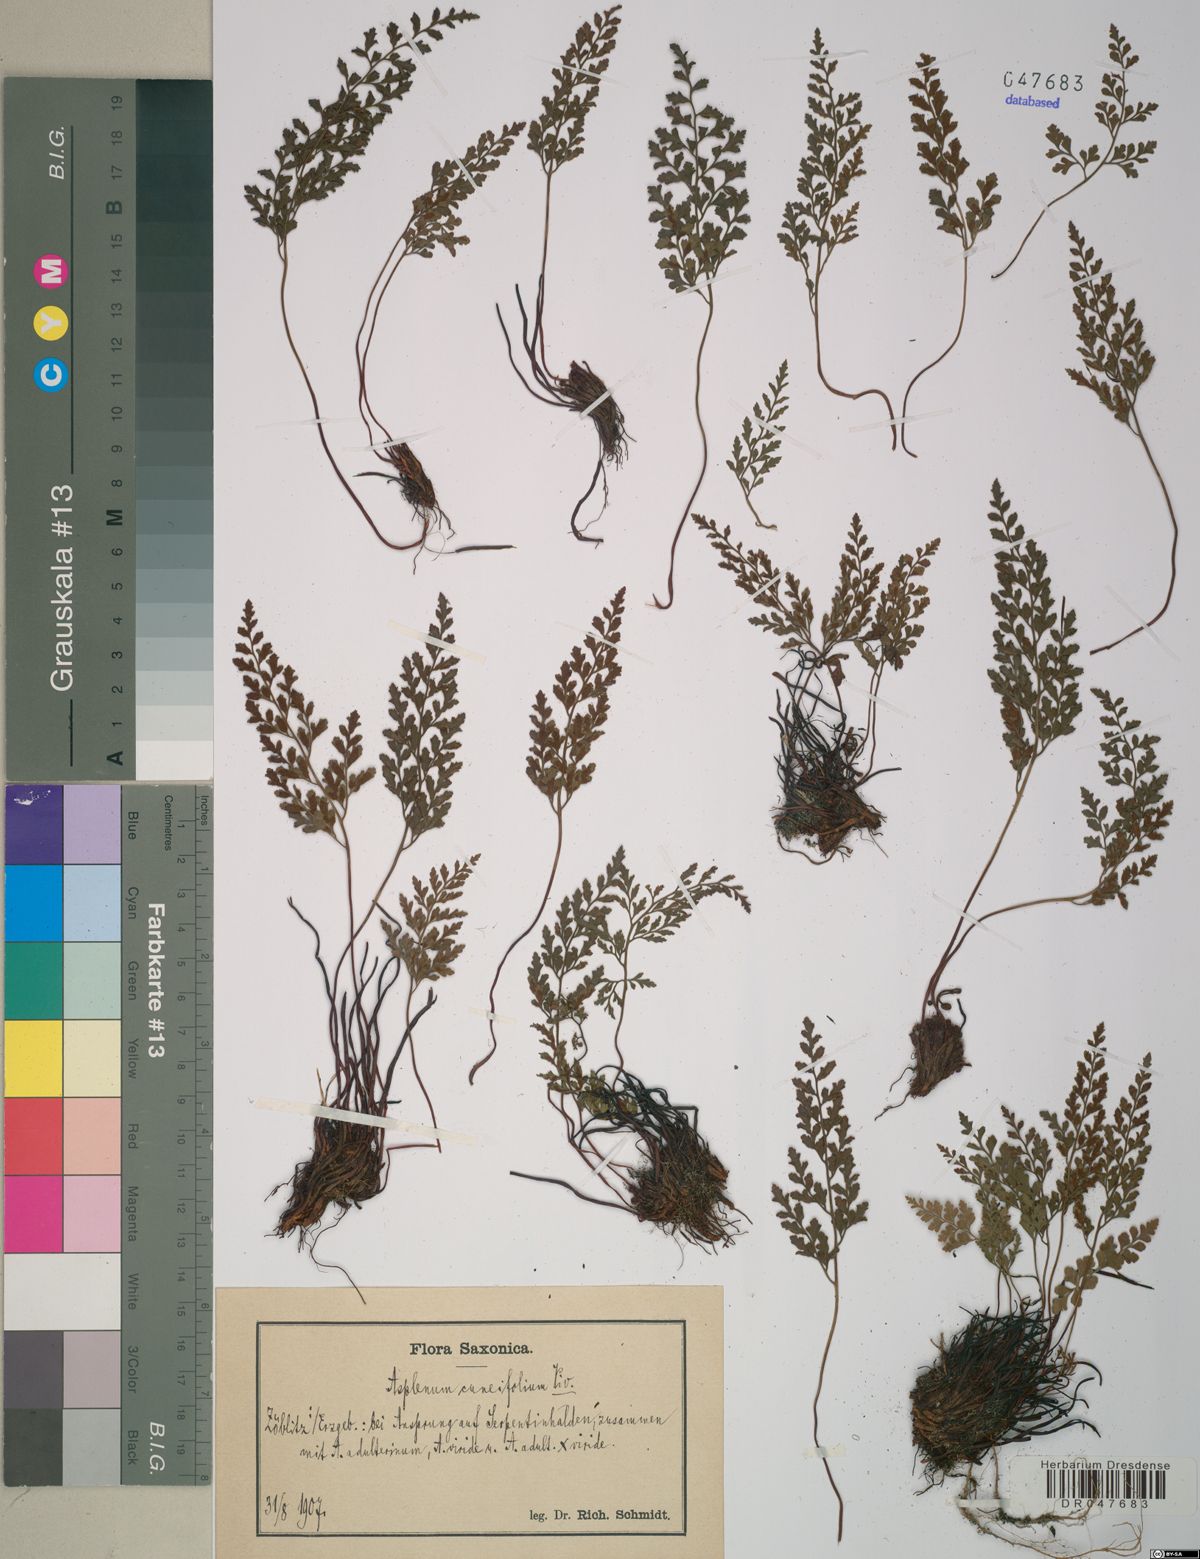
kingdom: Plantae
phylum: Tracheophyta
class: Polypodiopsida
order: Polypodiales
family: Aspleniaceae
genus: Asplenium
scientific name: Asplenium cuneifolium
